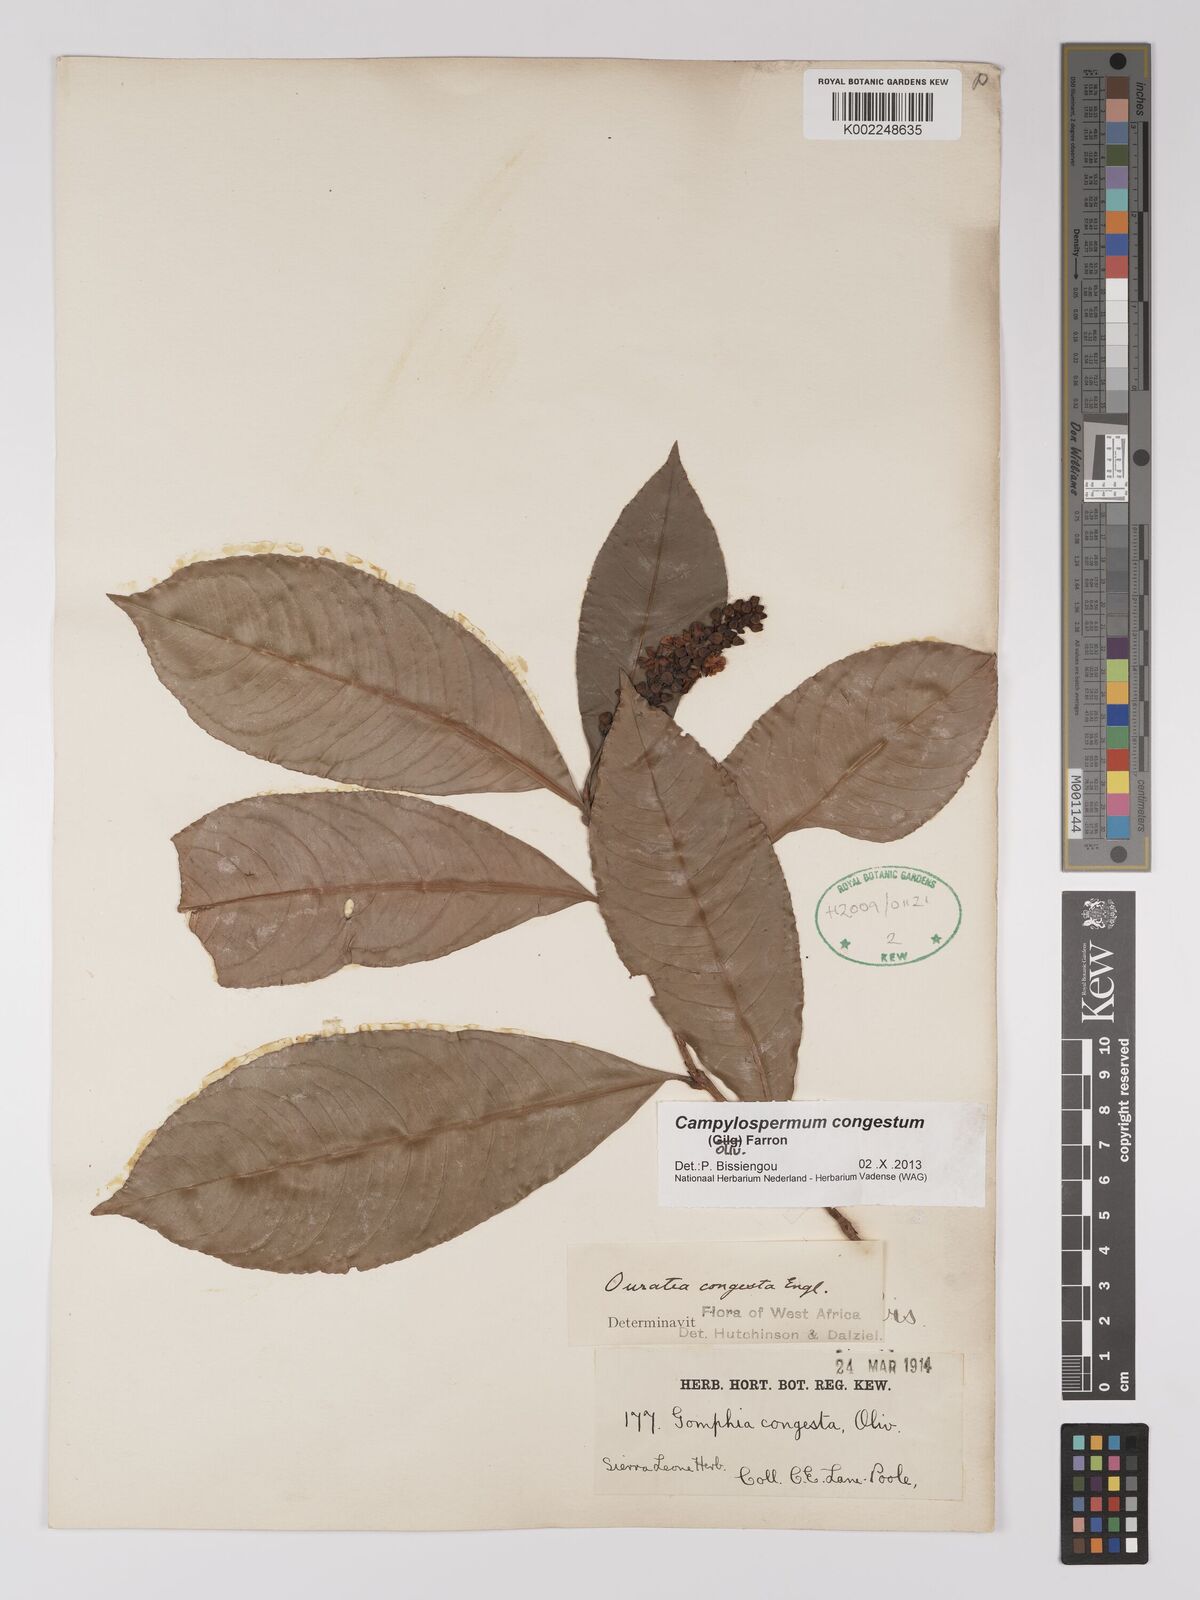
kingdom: Plantae
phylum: Tracheophyta
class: Magnoliopsida
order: Malpighiales
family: Ochnaceae
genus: Campylospermum
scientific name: Campylospermum congestum
